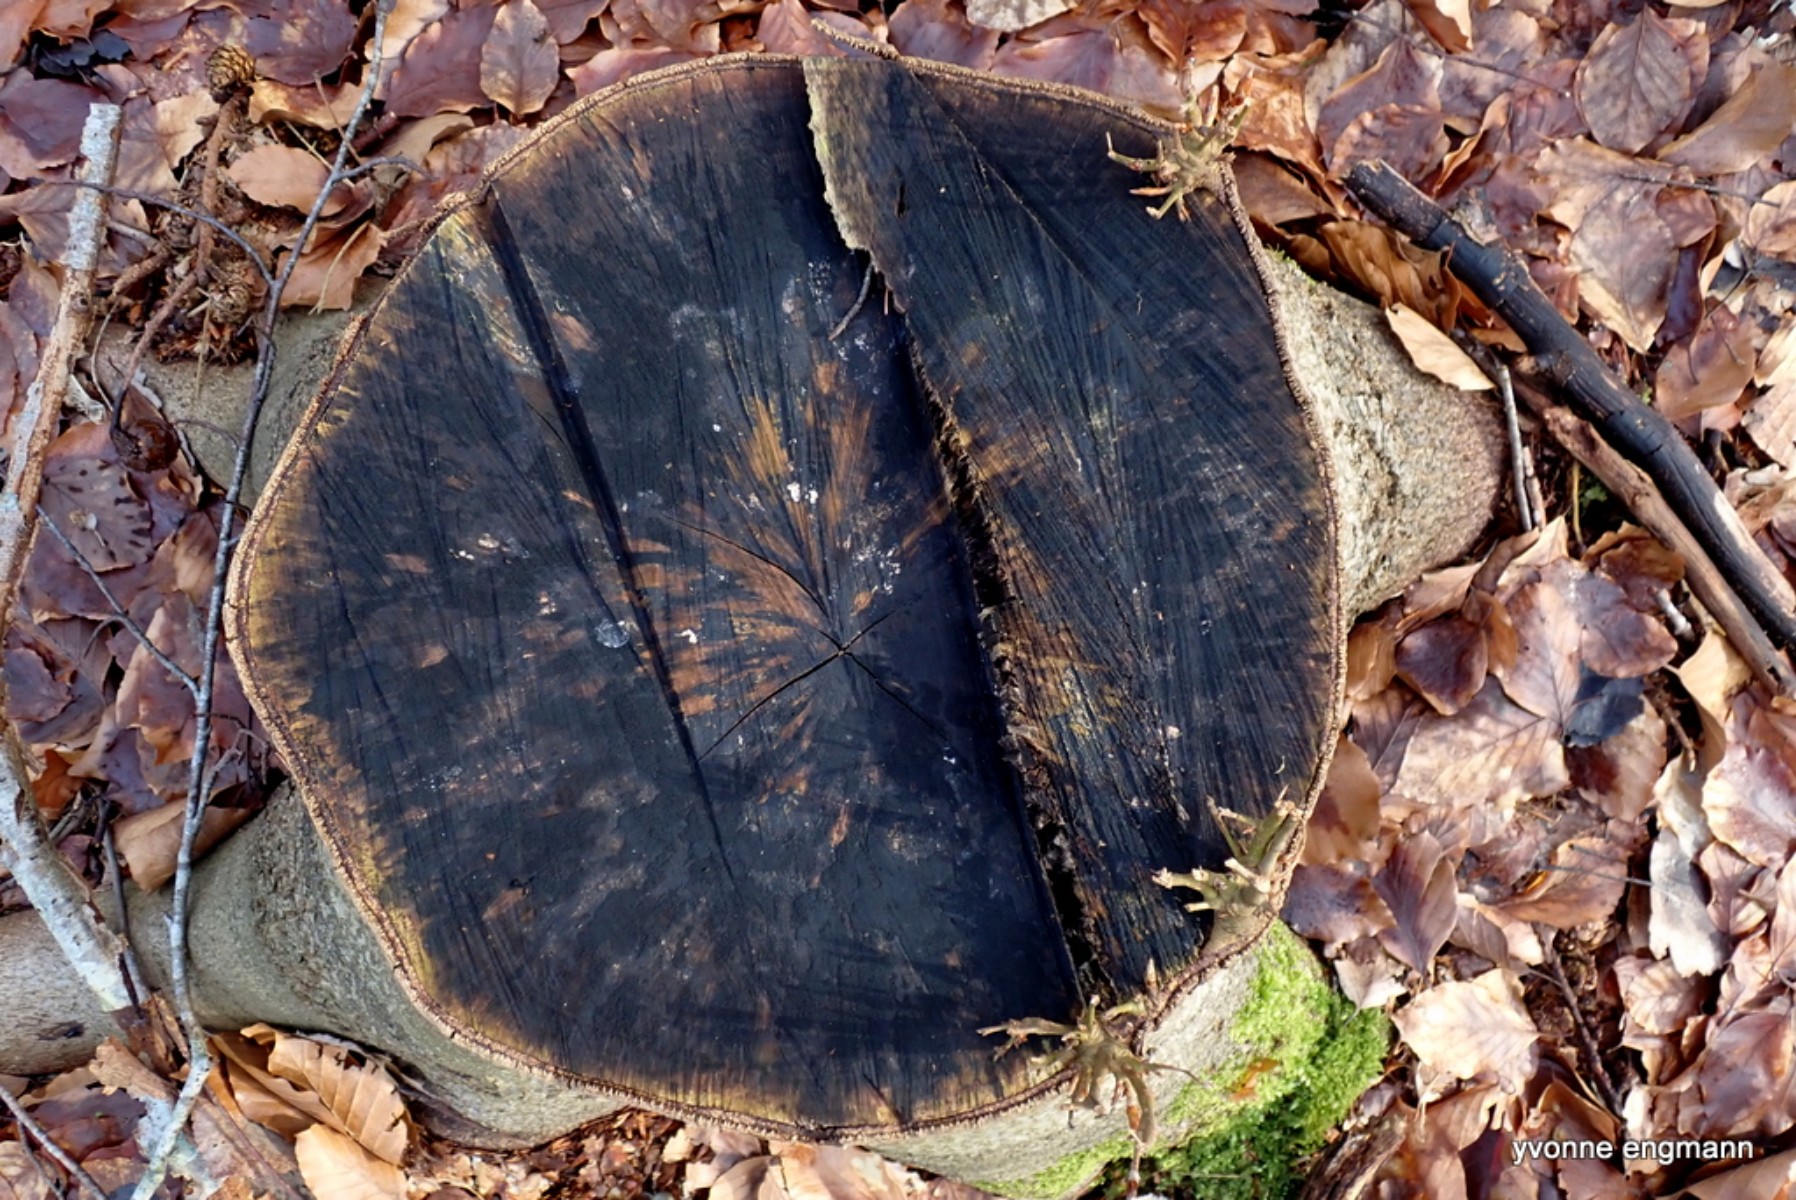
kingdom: Fungi
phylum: Ascomycota
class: Leotiomycetes
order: Helotiales
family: Helotiaceae
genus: Bispora
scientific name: Bispora pallescens
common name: måtte-snitskive
